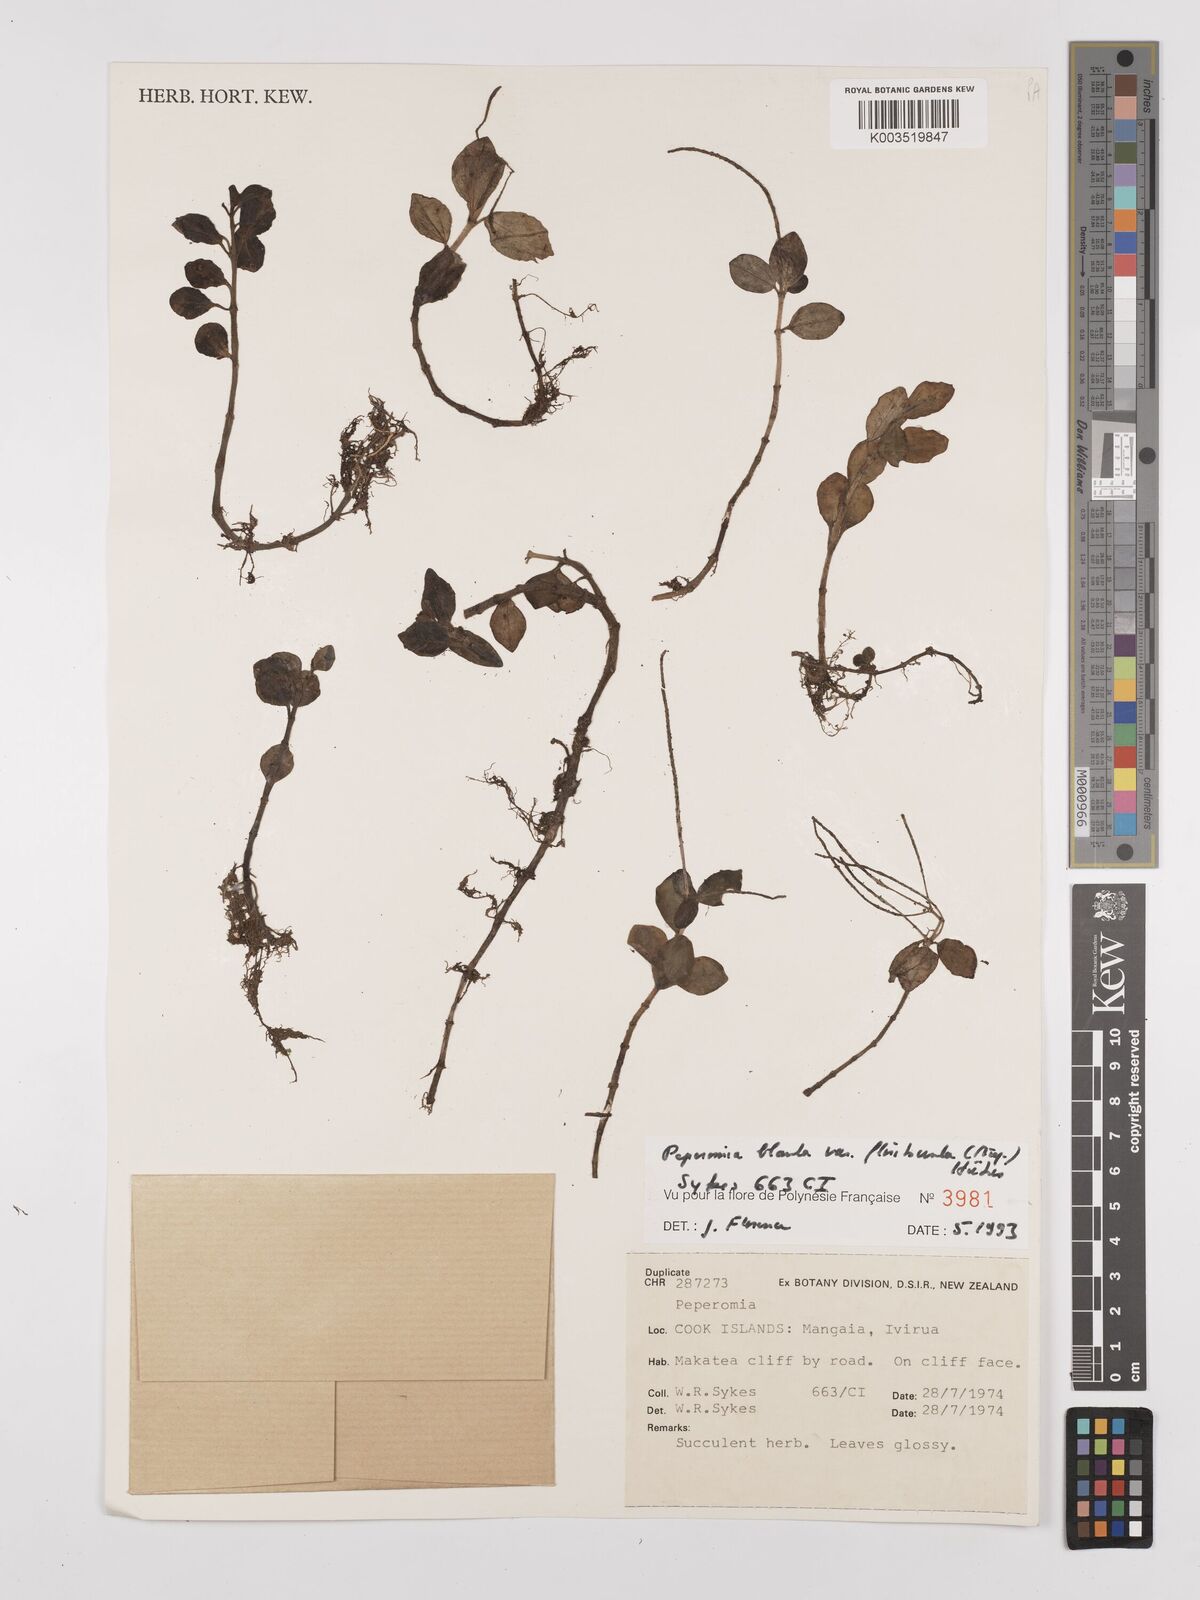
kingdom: Plantae
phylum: Tracheophyta
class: Magnoliopsida
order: Piperales
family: Piperaceae
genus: Peperomia
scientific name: Peperomia leptostachya
